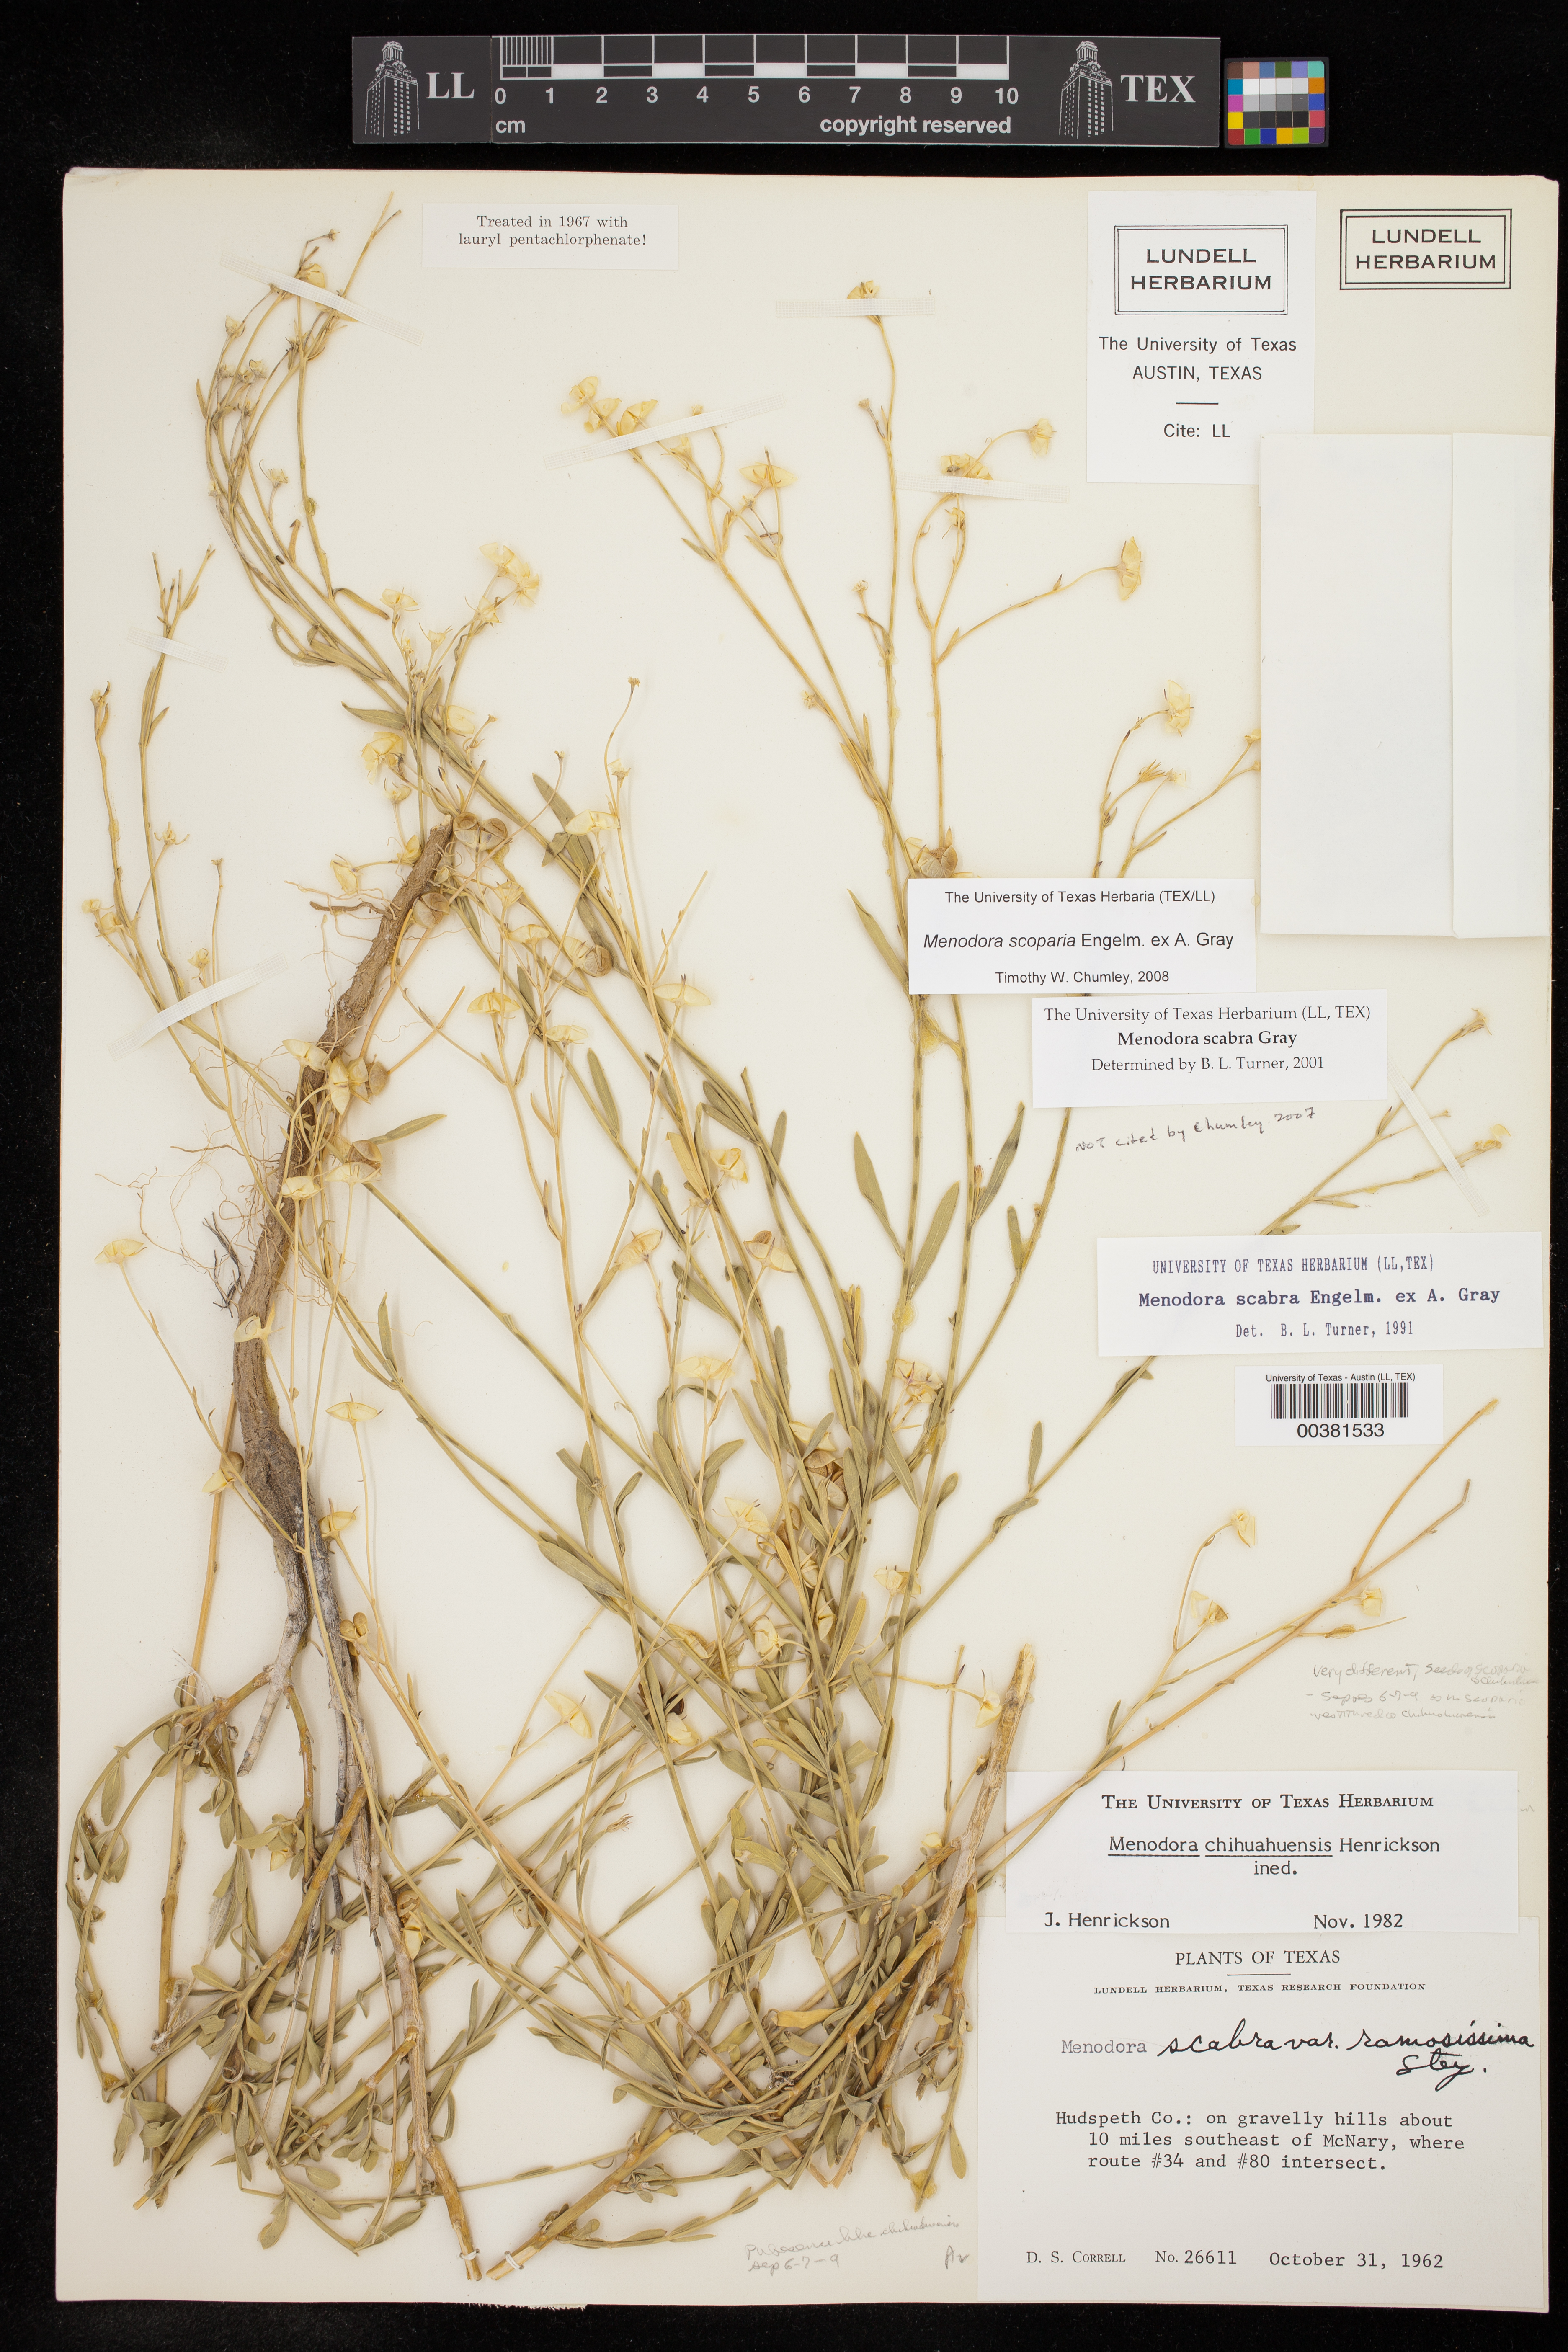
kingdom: Plantae
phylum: Tracheophyta
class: Magnoliopsida
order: Lamiales
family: Oleaceae
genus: Menodora
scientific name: Menodora scabra
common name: Rough menodora
